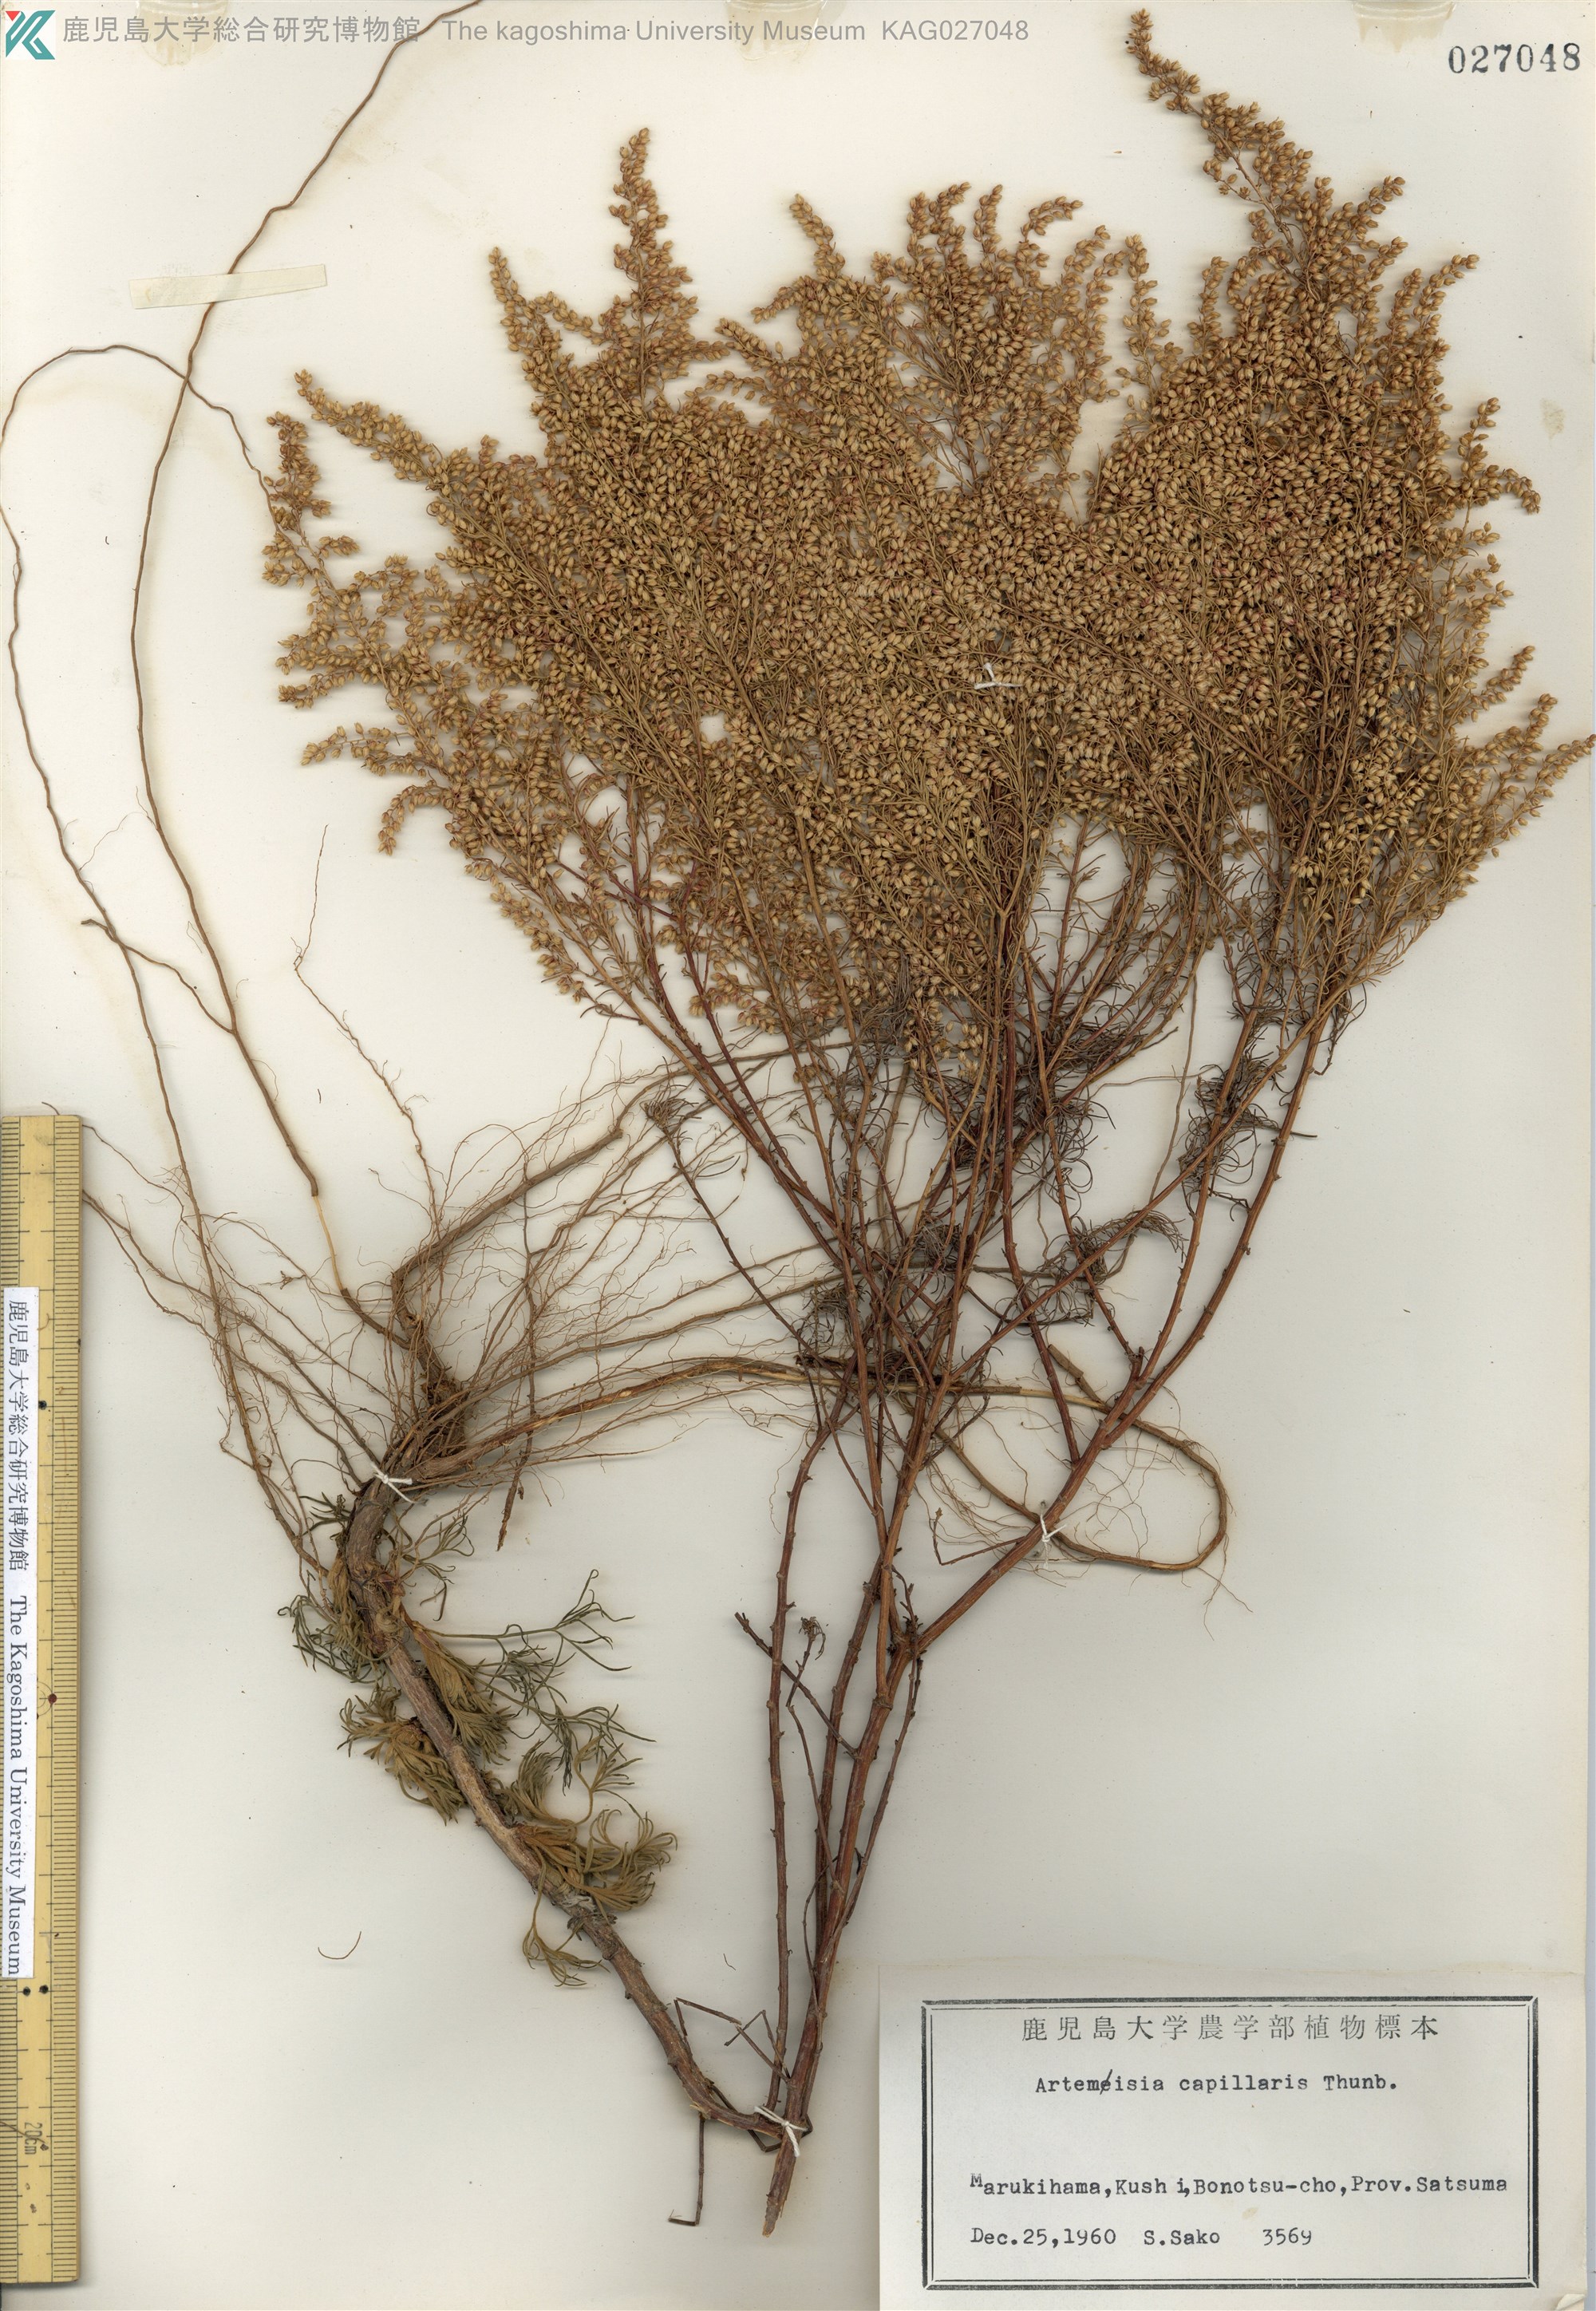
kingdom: Plantae
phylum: Tracheophyta
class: Magnoliopsida
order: Asterales
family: Asteraceae
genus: Artemisia
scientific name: Artemisia capillaris
